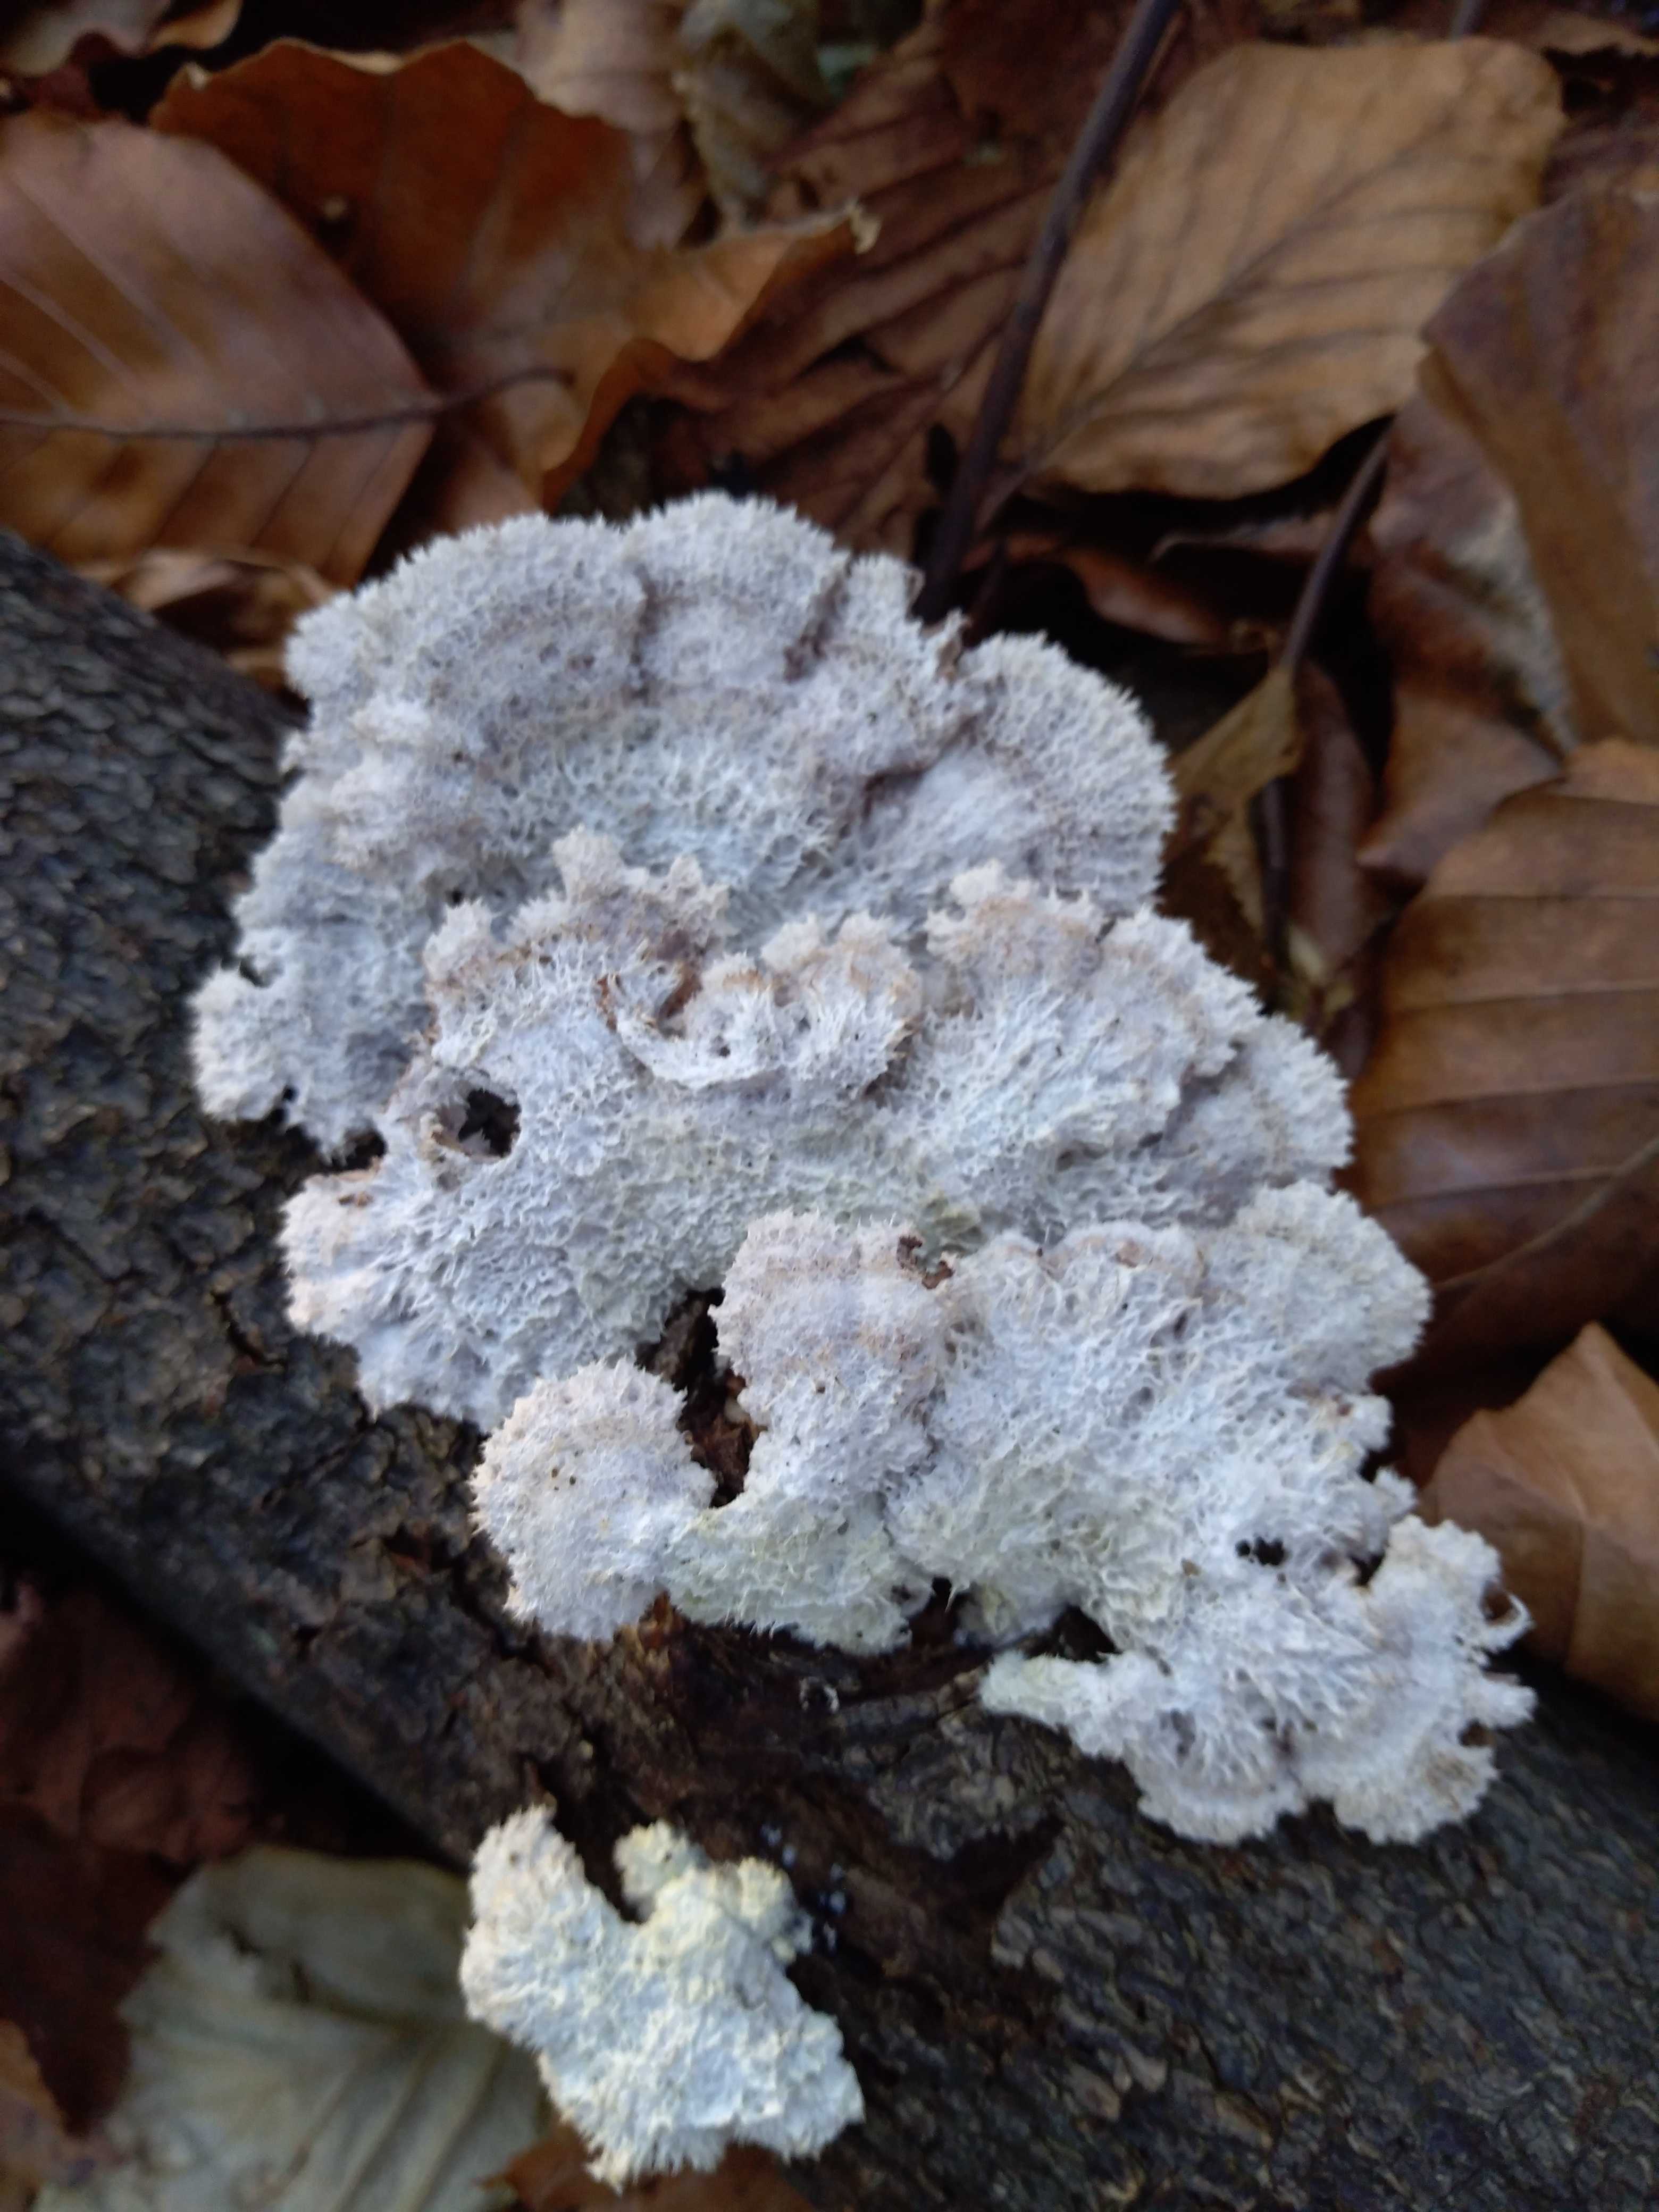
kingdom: Fungi
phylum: Basidiomycota
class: Agaricomycetes
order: Agaricales
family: Schizophyllaceae
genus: Schizophyllum
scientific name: Schizophyllum commune
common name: kløvblad
